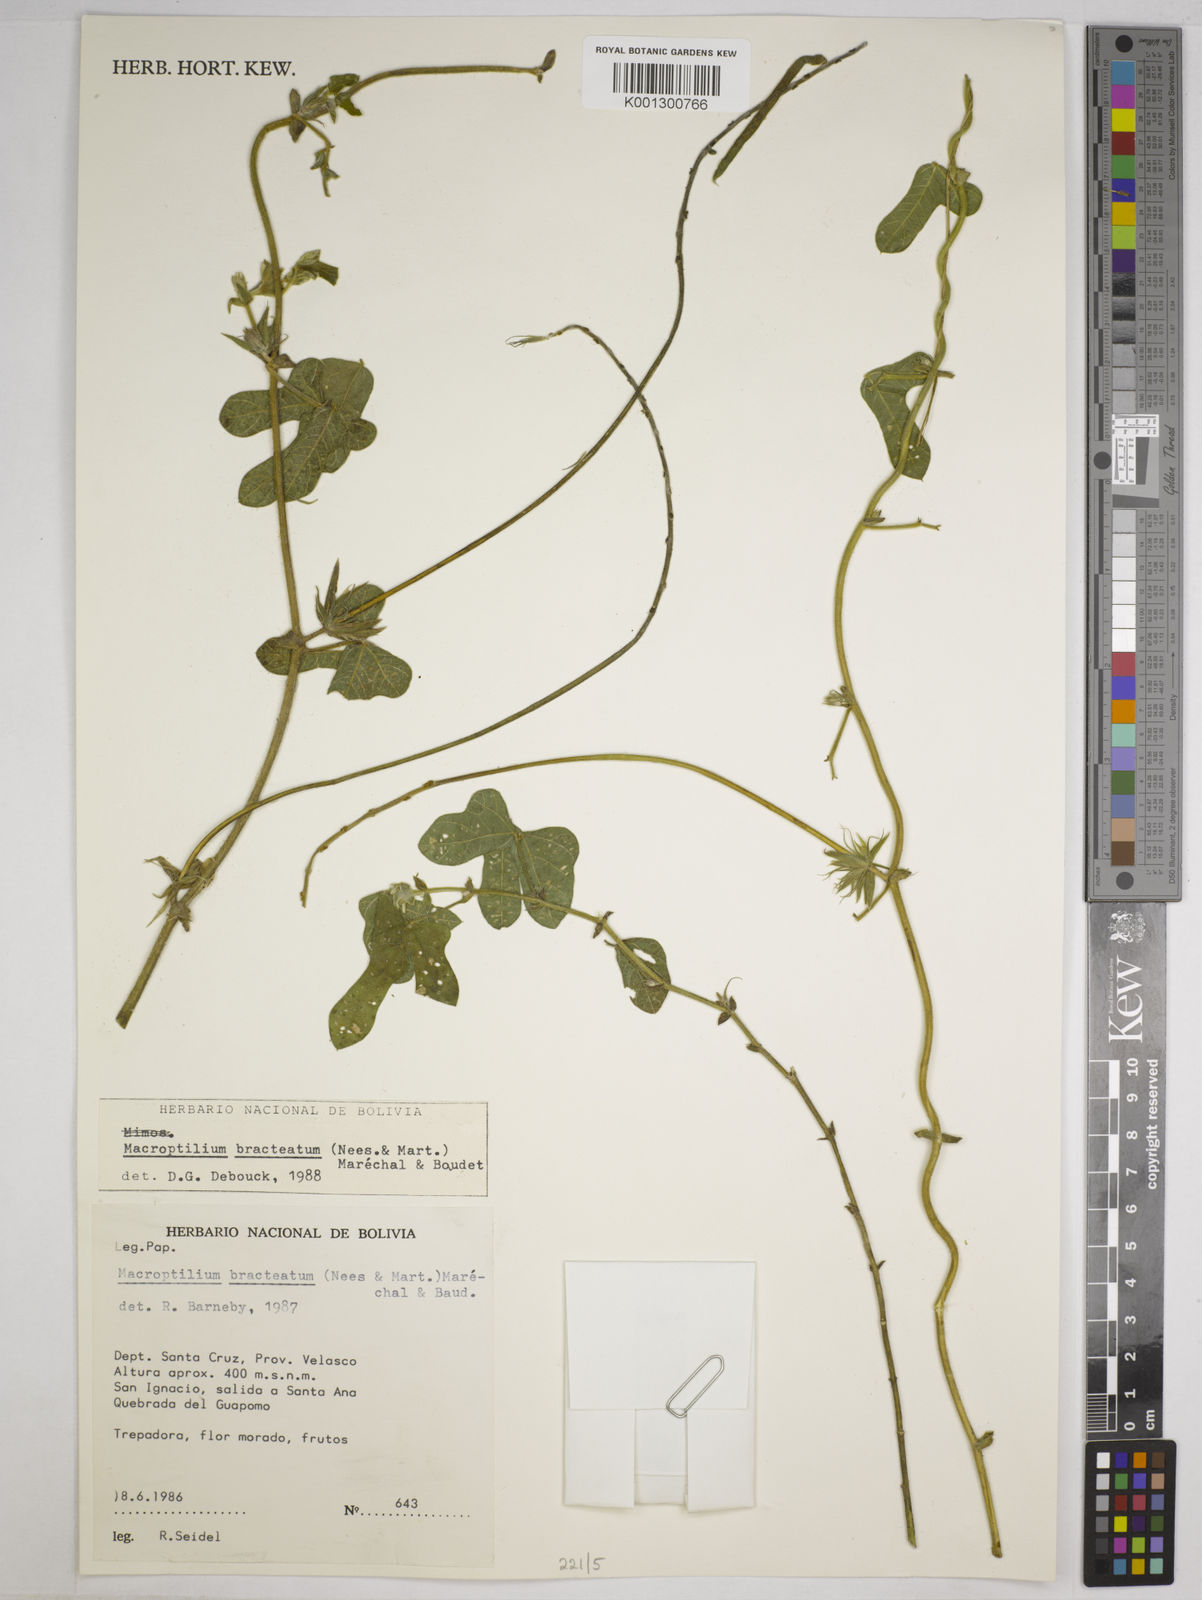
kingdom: Plantae
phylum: Tracheophyta
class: Magnoliopsida
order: Fabales
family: Fabaceae
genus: Macroptilium
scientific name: Macroptilium bracteatum
